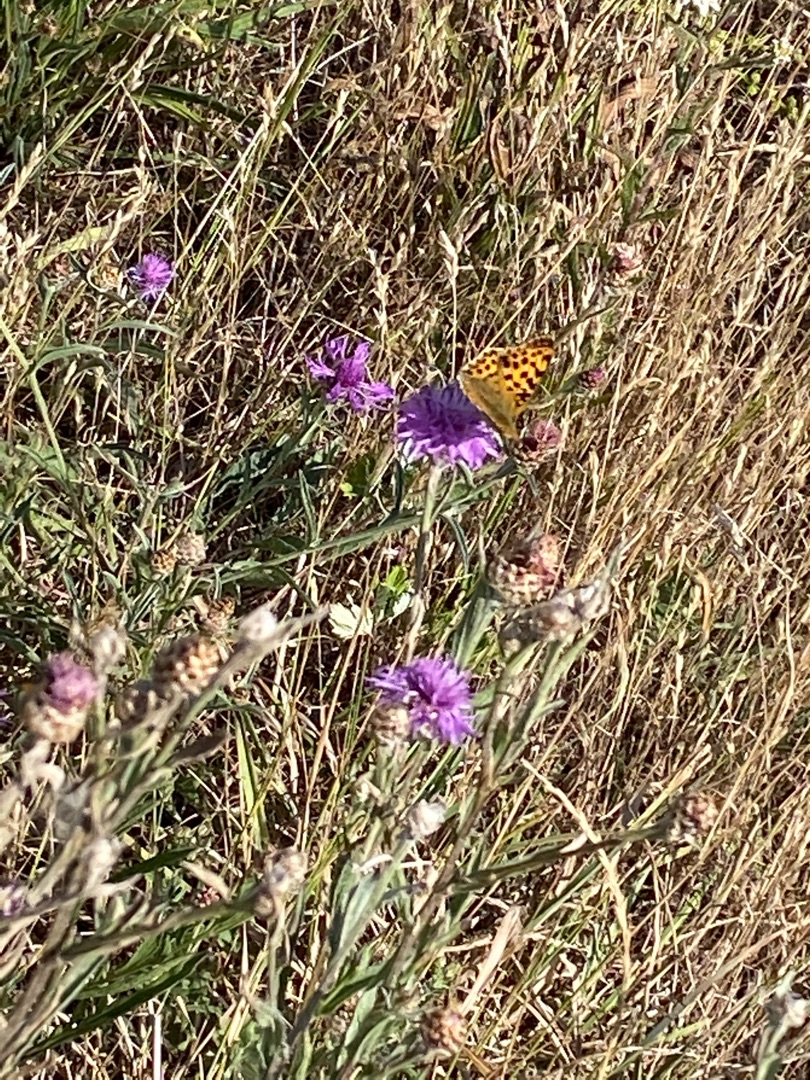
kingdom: Animalia
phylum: Arthropoda
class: Insecta
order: Lepidoptera
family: Nymphalidae
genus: Issoria
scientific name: Issoria lathonia
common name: Storplettet perlemorsommerfugl
